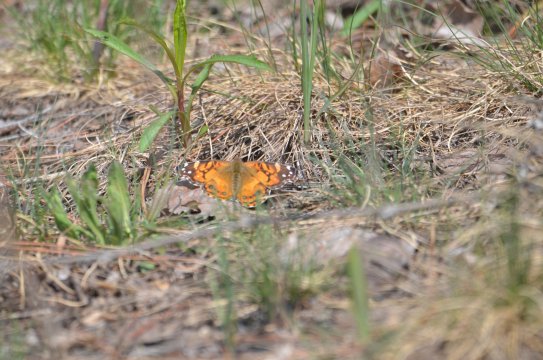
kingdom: Animalia
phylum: Arthropoda
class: Insecta
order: Lepidoptera
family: Nymphalidae
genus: Vanessa
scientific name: Vanessa virginiensis
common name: American Lady
